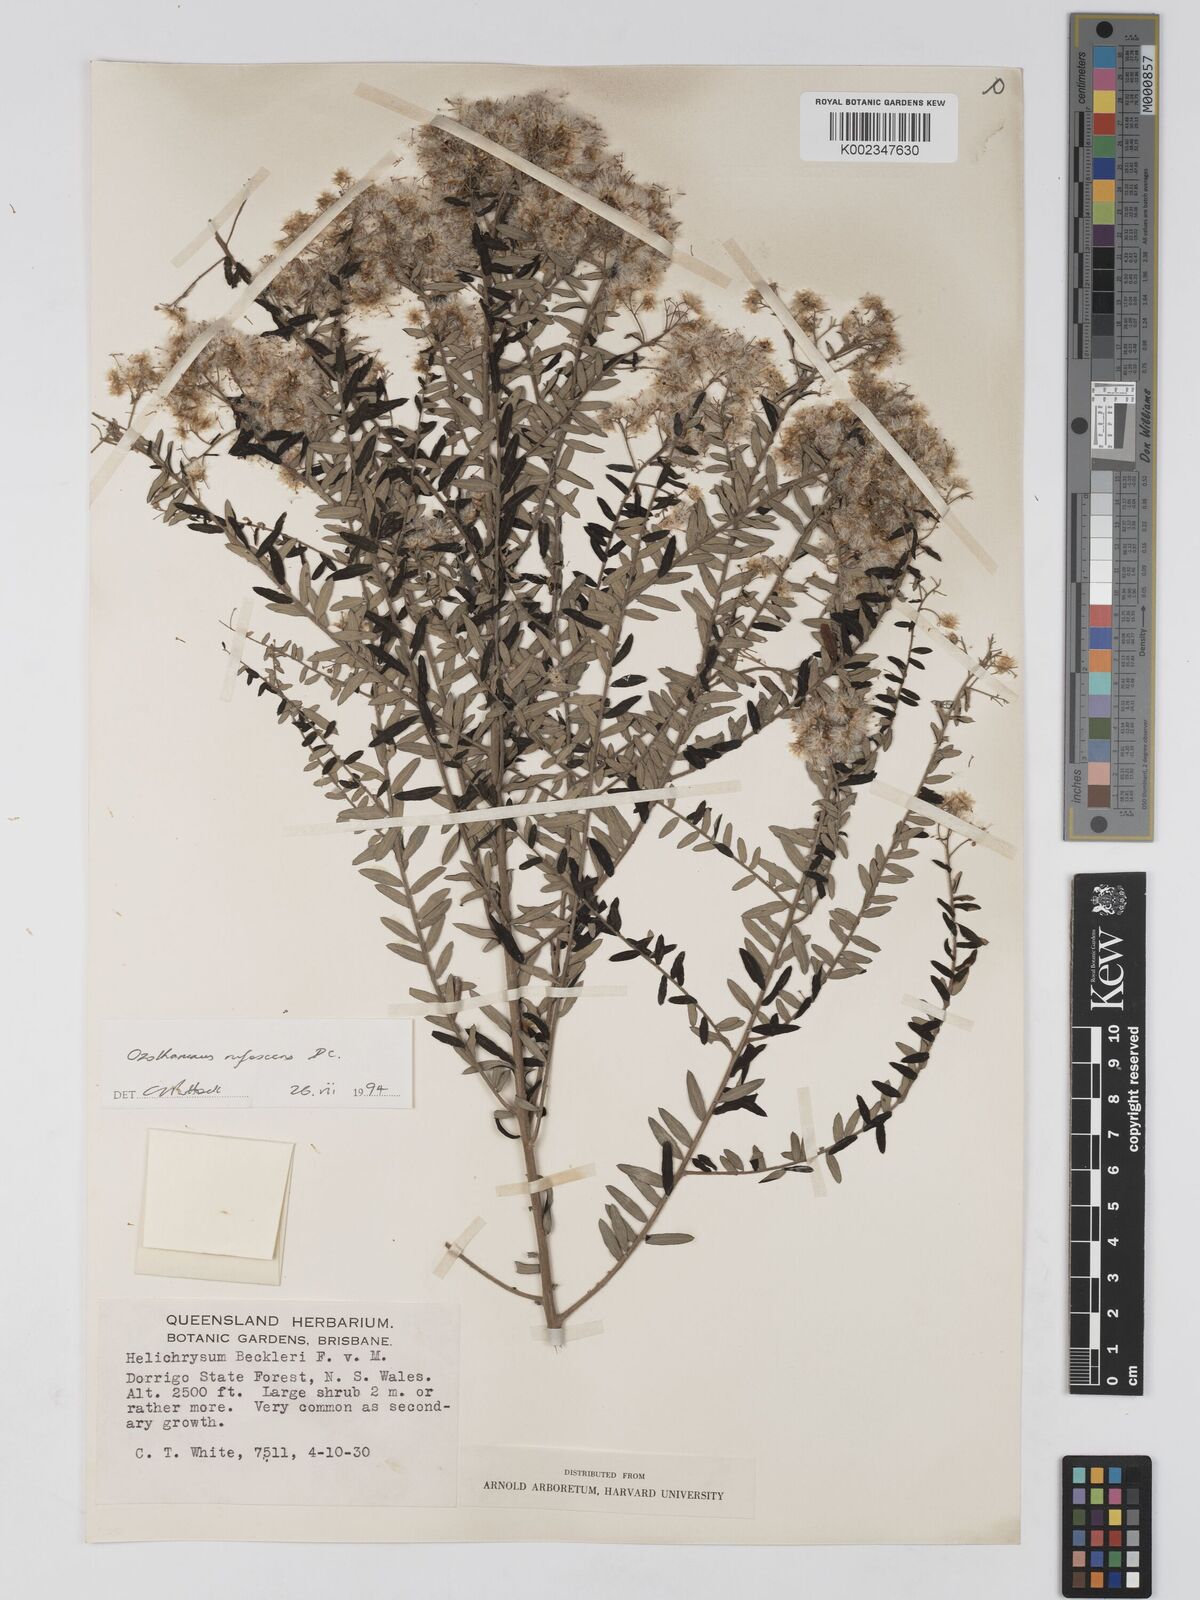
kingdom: Plantae
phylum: Tracheophyta
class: Magnoliopsida
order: Asterales
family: Asteraceae
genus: Ozothamnus
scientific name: Ozothamnus rufescens
